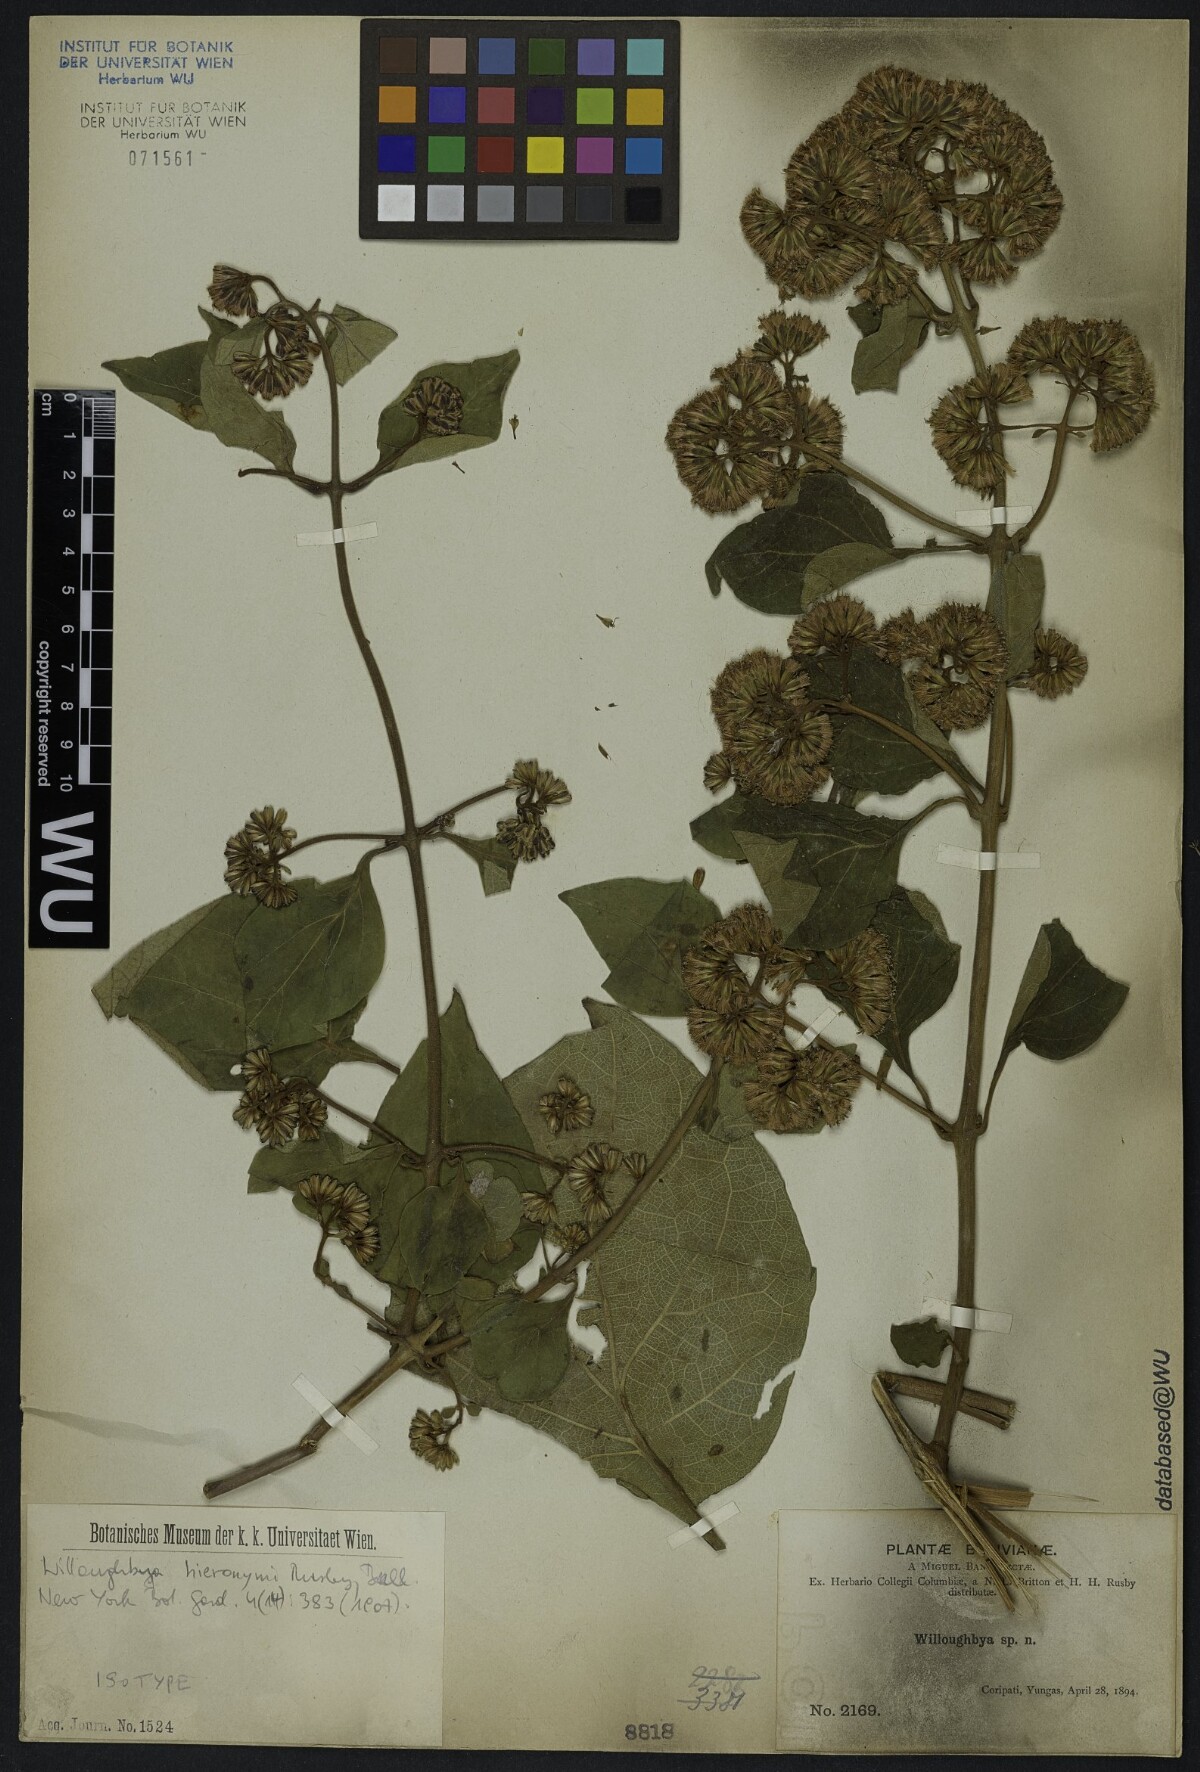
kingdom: Plantae
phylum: Tracheophyta
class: Magnoliopsida
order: Asterales
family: Asteraceae
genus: Mikania
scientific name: Mikania speciosa
